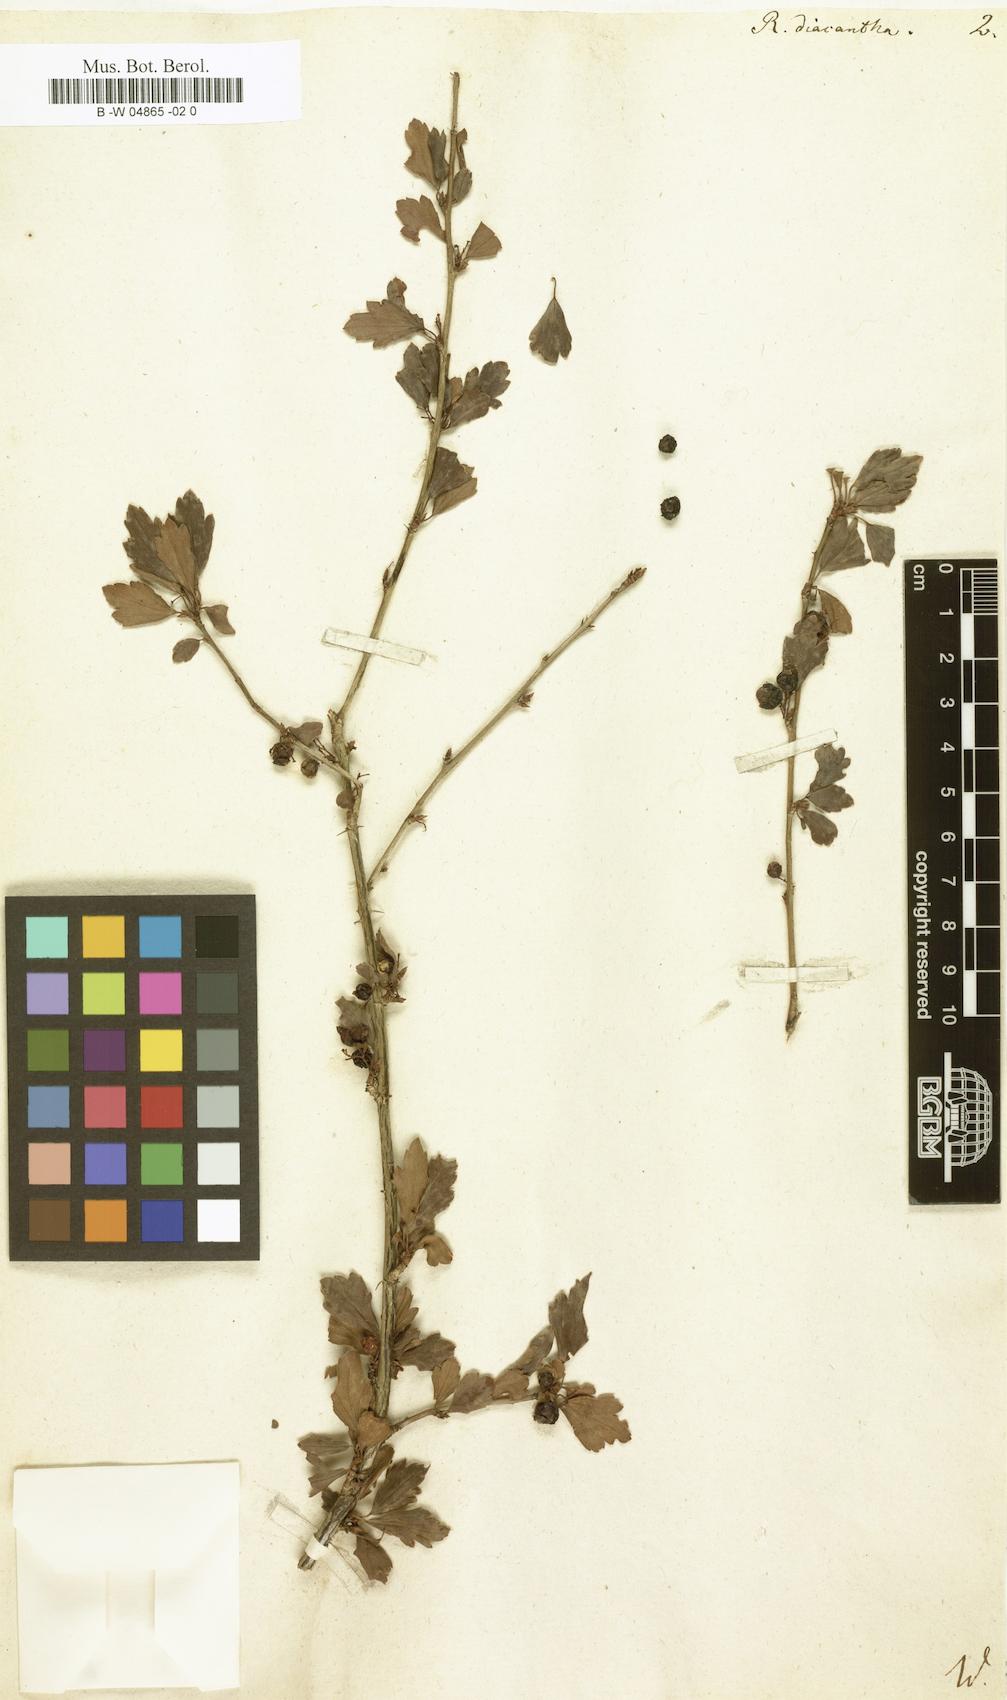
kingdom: Plantae
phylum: Tracheophyta
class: Magnoliopsida
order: Saxifragales
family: Grossulariaceae
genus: Ribes
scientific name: Ribes diacanthum
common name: Siberian currant
